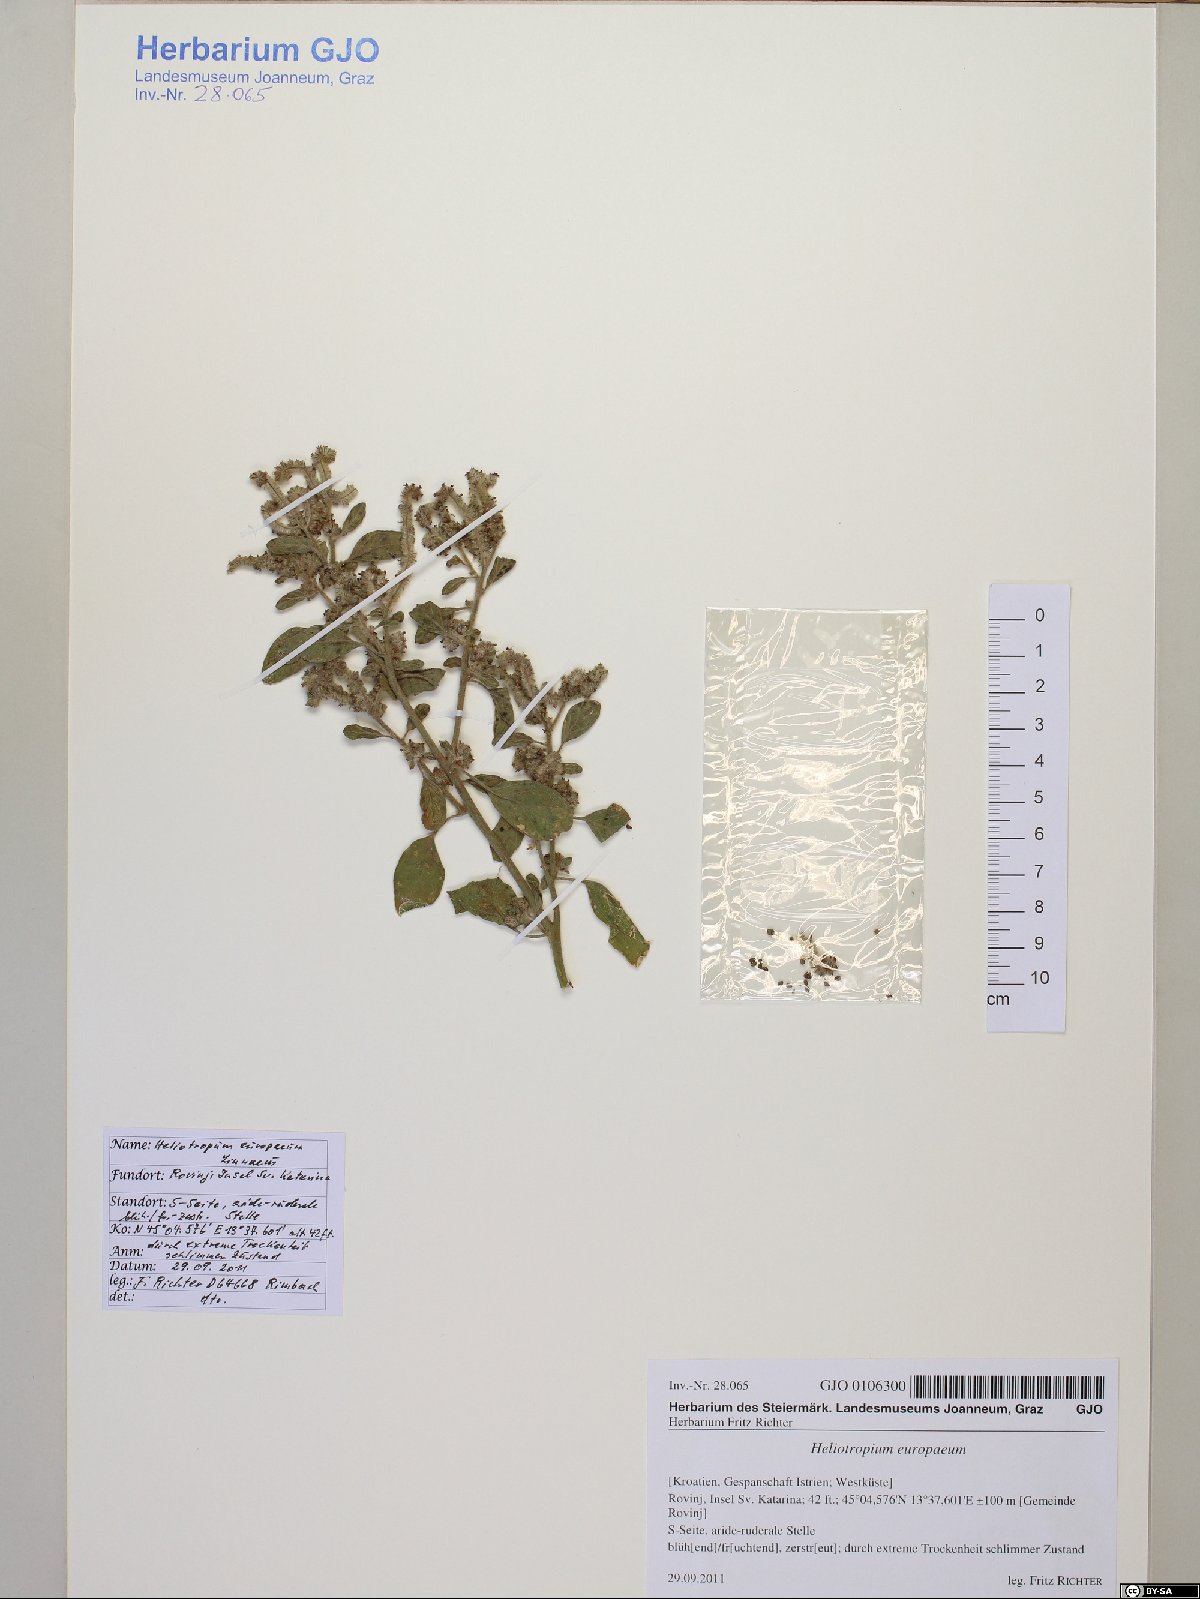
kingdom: Plantae
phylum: Tracheophyta
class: Magnoliopsida
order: Boraginales
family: Heliotropiaceae
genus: Heliotropium
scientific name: Heliotropium europaeum
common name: European heliotrope
